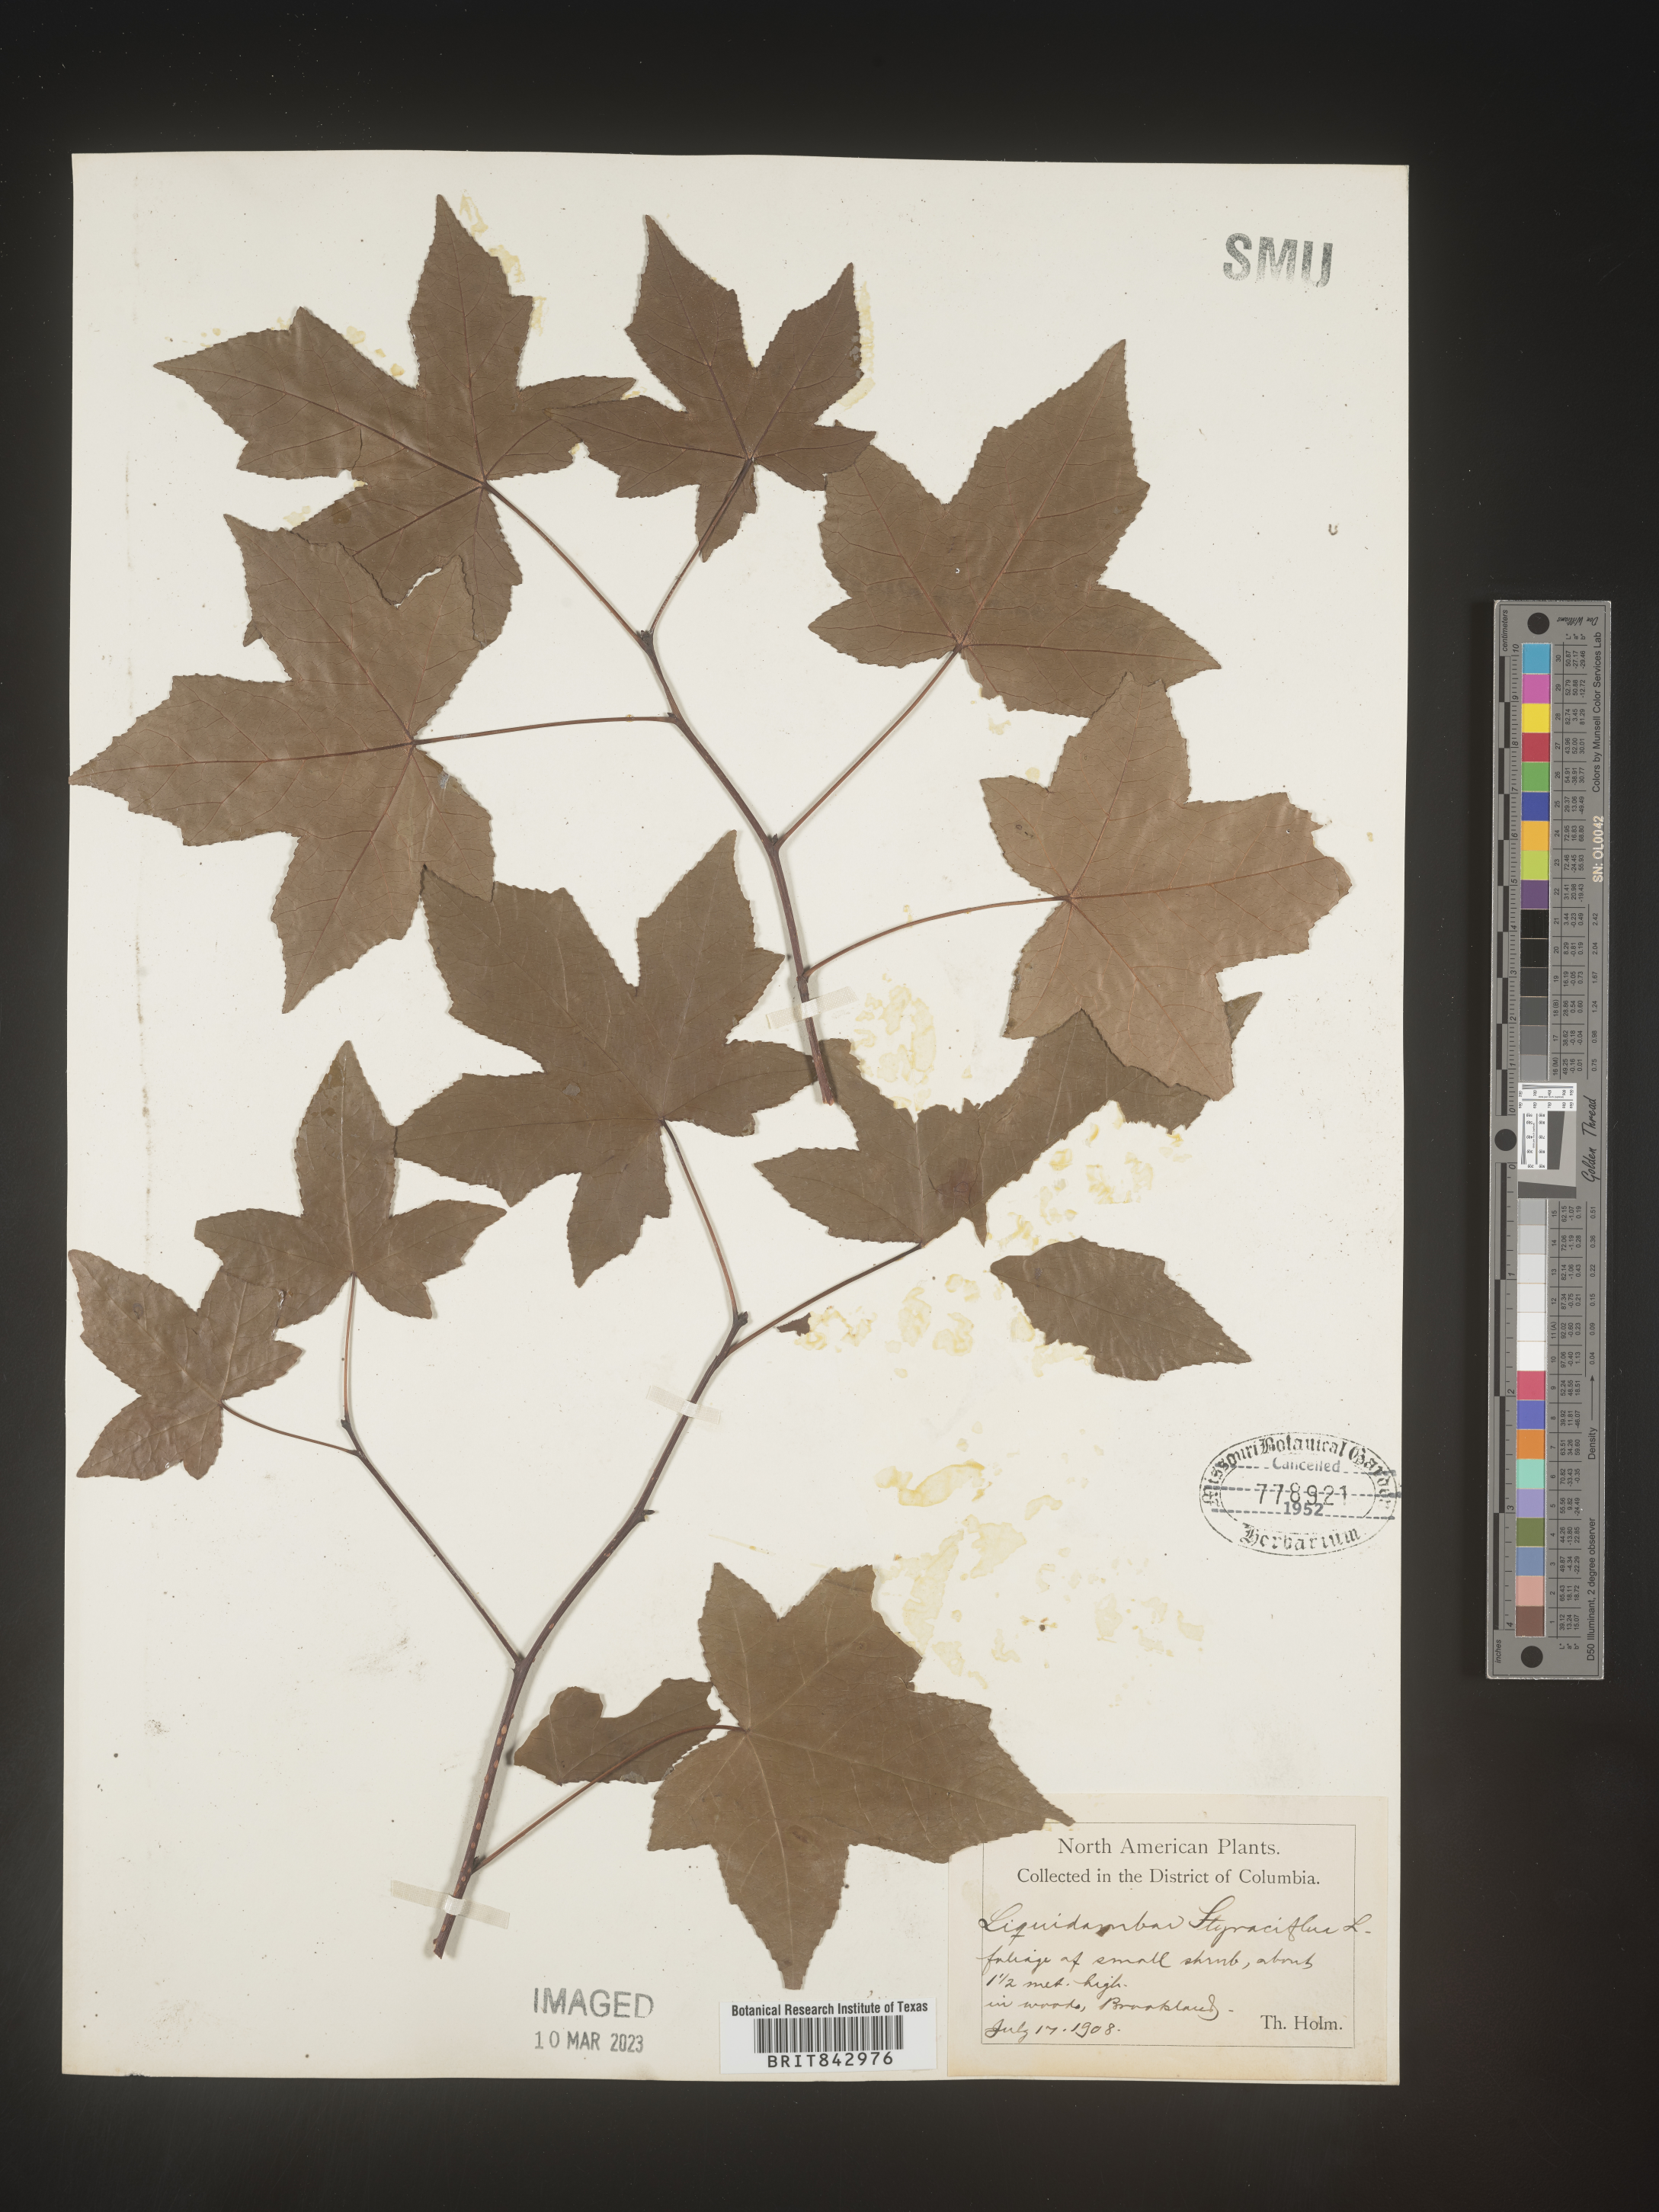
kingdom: Plantae
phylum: Tracheophyta
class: Magnoliopsida
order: Saxifragales
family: Altingiaceae
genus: Liquidambar
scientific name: Liquidambar
